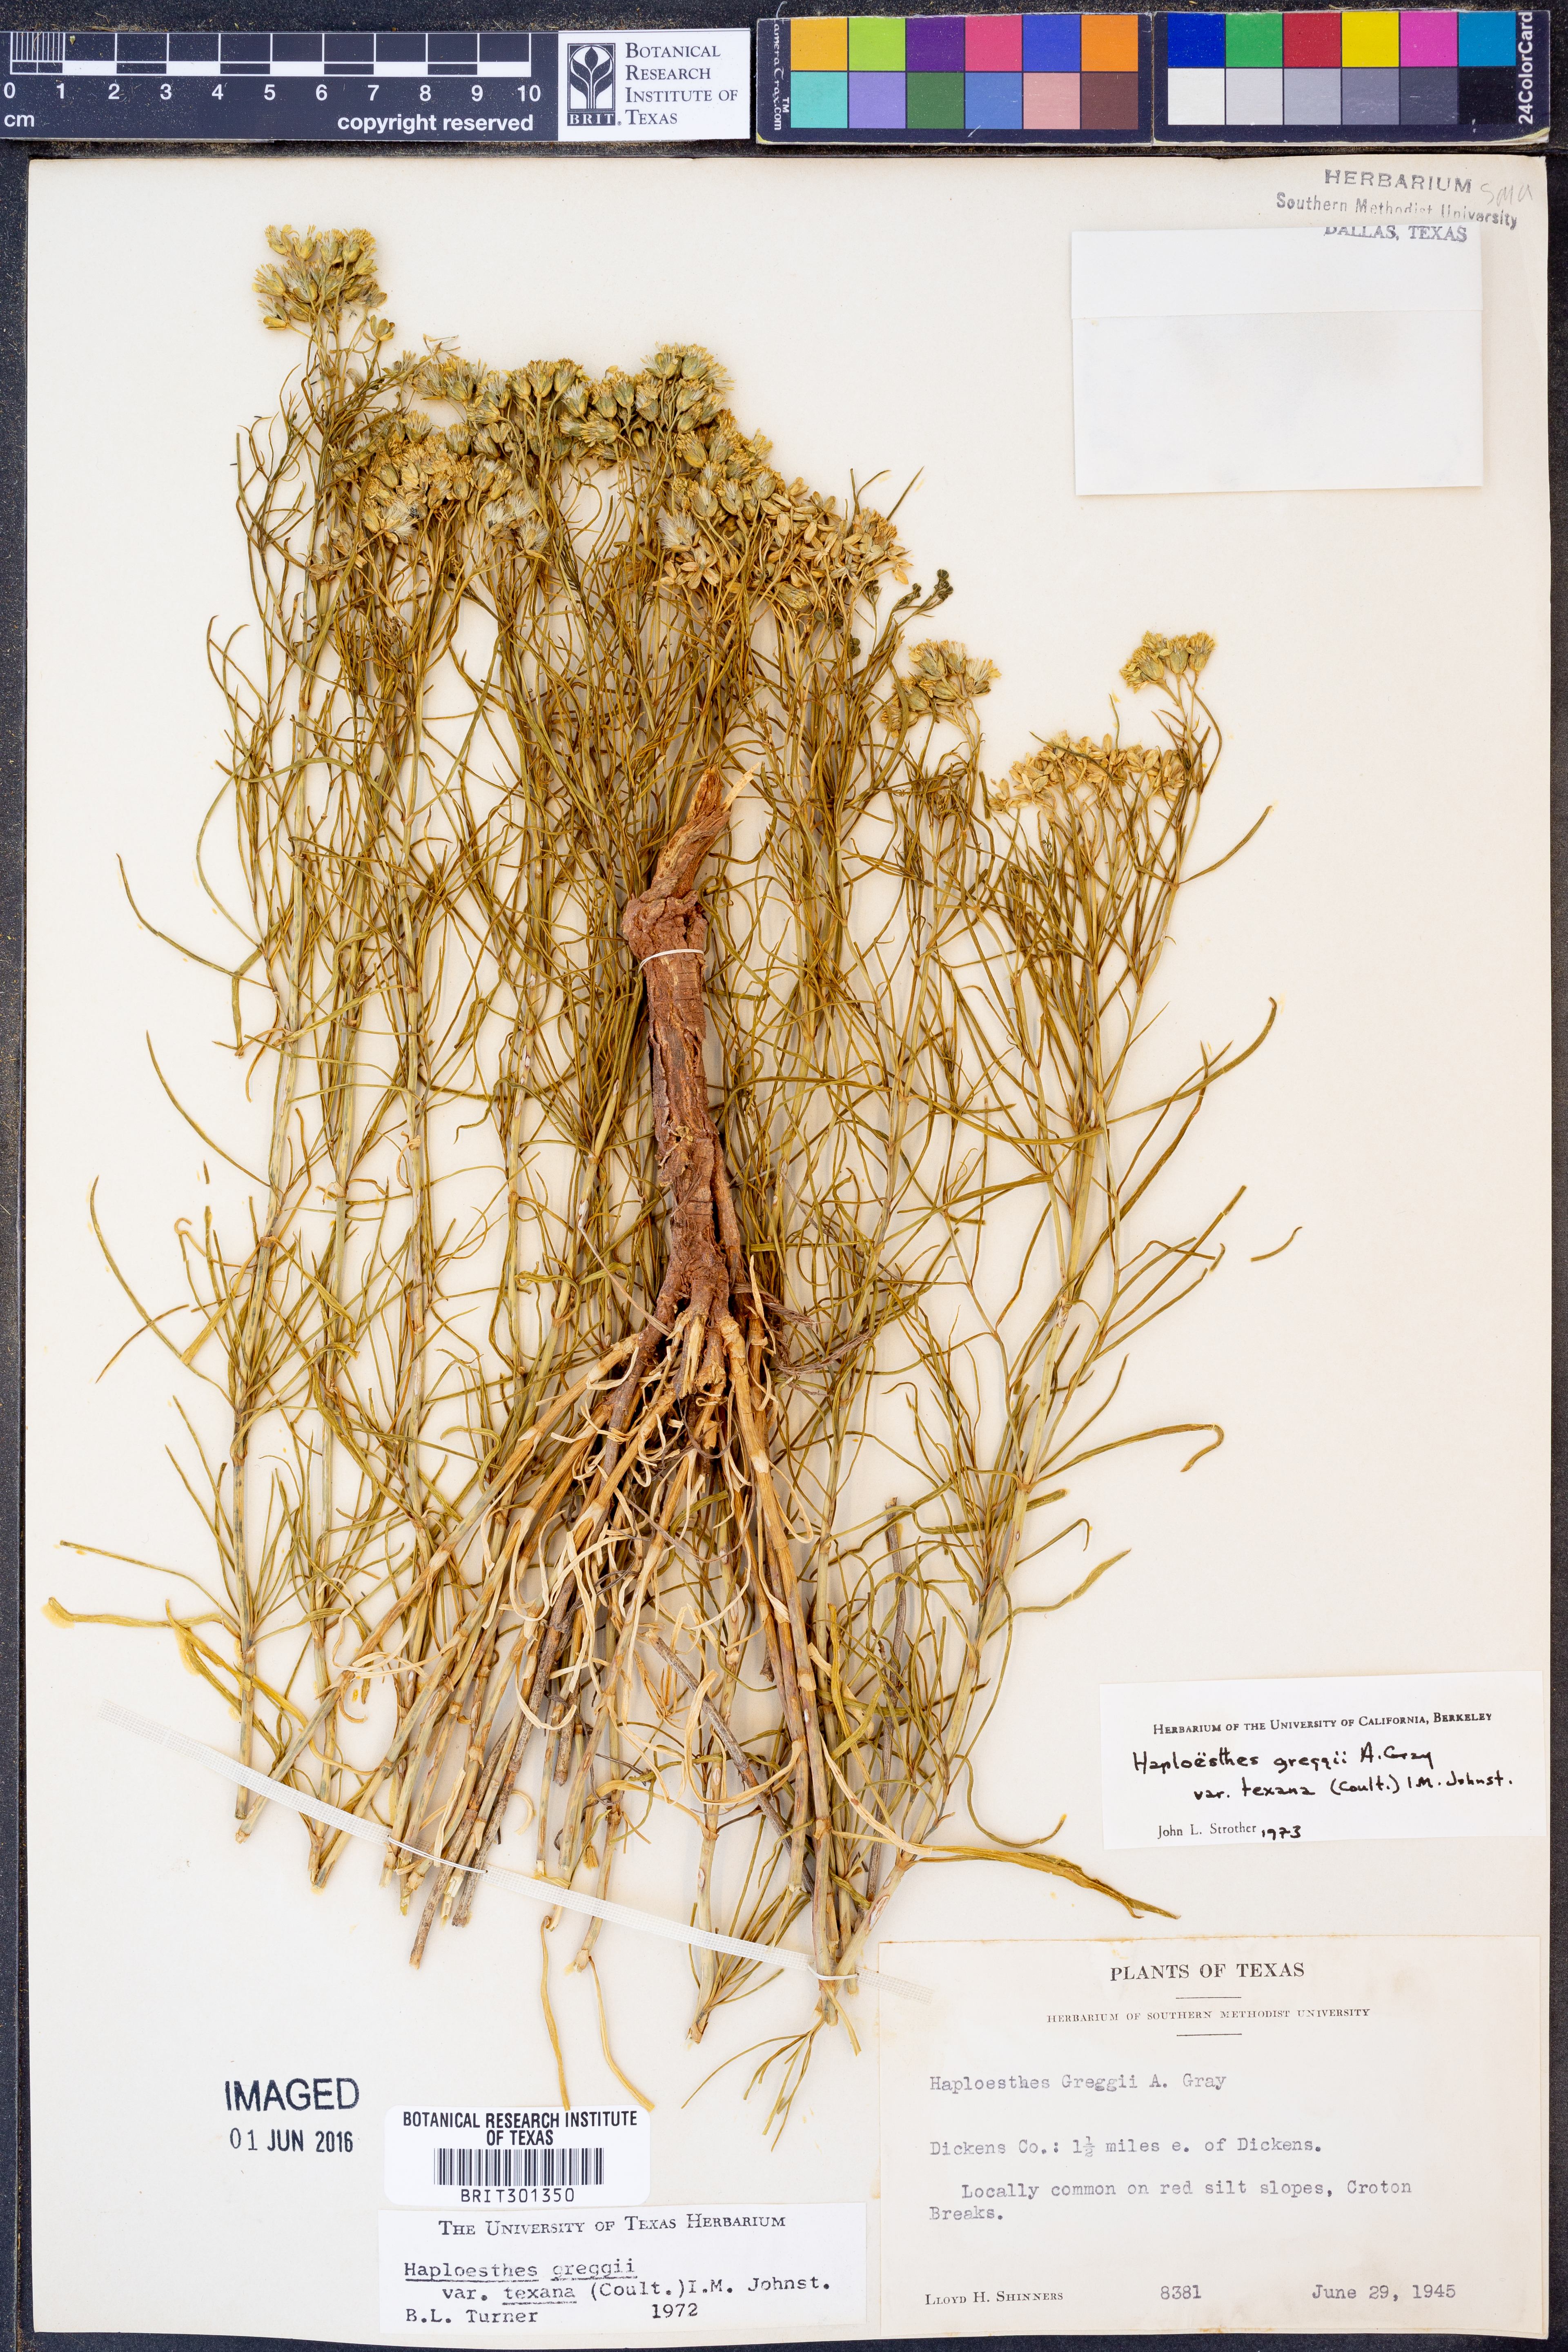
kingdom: Plantae
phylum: Tracheophyta
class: Magnoliopsida
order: Asterales
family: Asteraceae
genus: Haploesthes
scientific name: Haploesthes greggii
